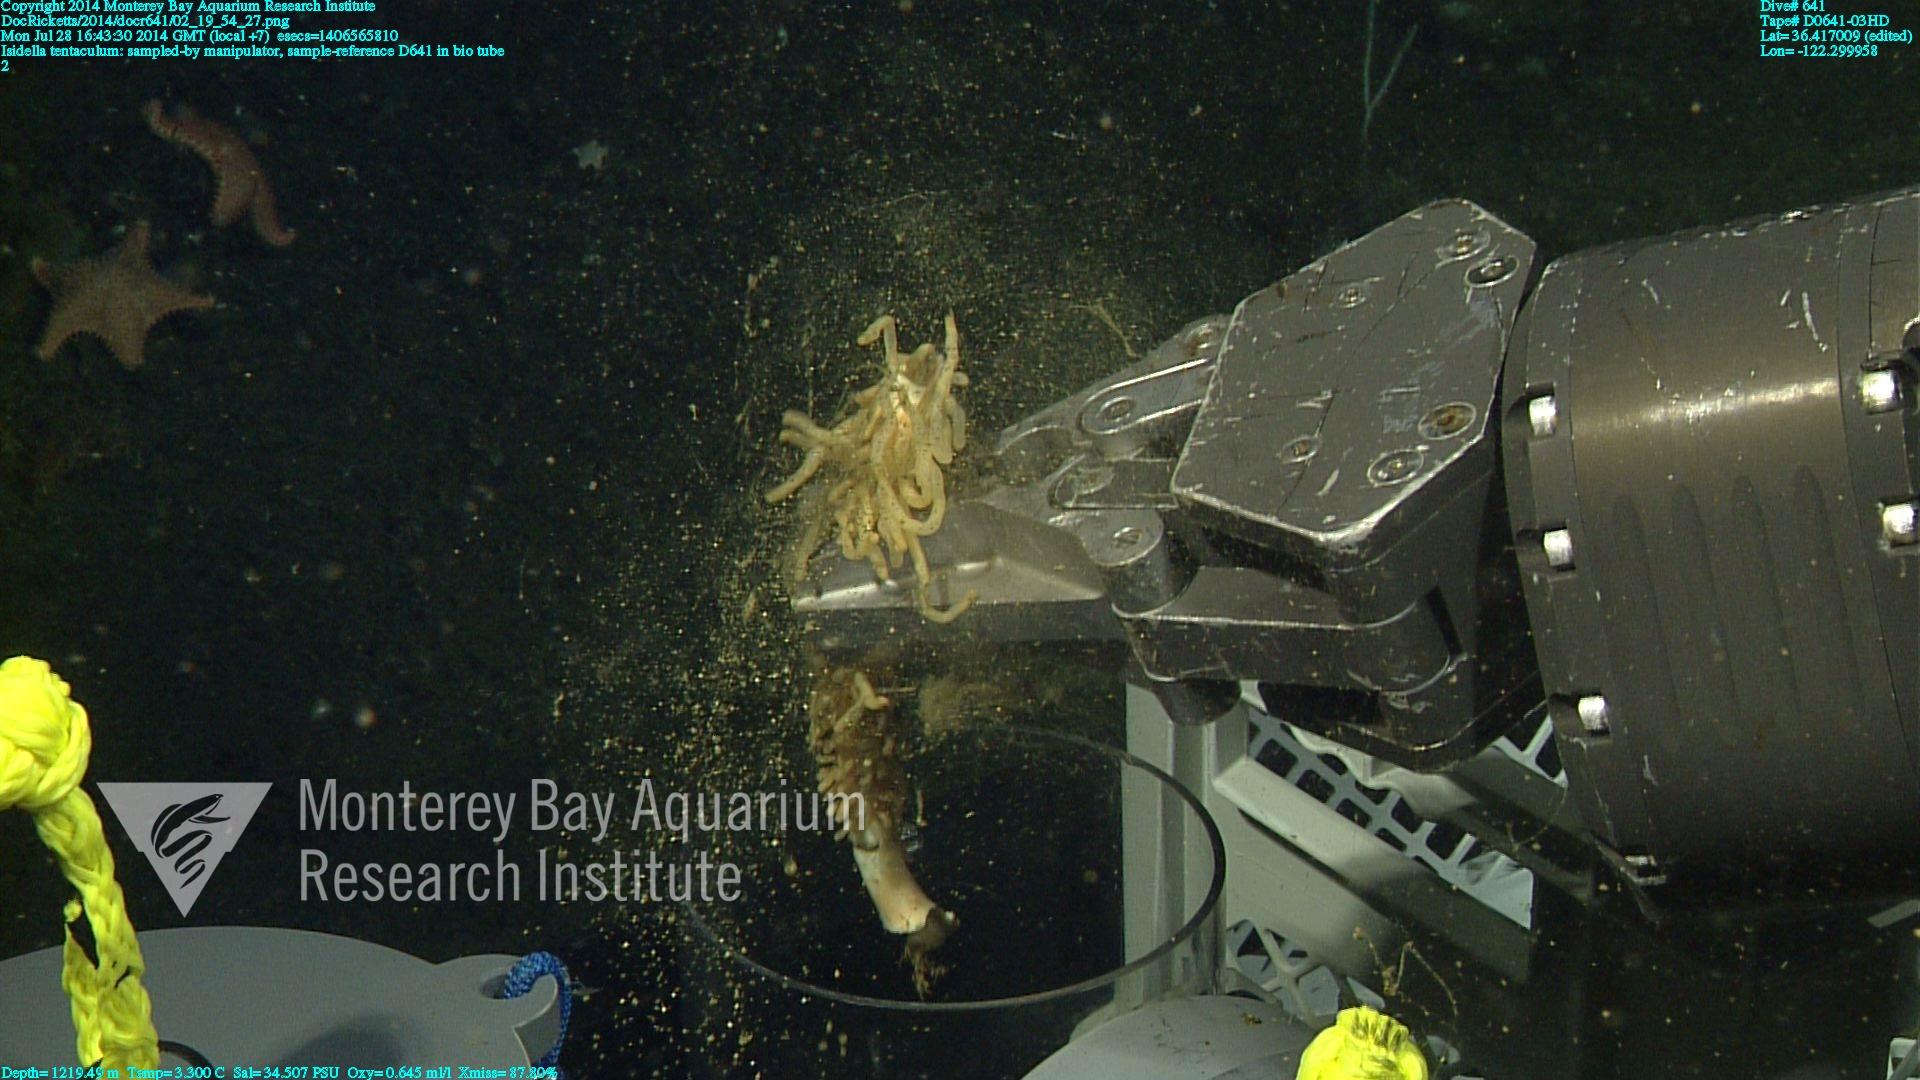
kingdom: Animalia
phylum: Cnidaria
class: Anthozoa
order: Scleralcyonacea
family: Keratoisididae
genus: Isidella
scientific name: Isidella tentaculum
